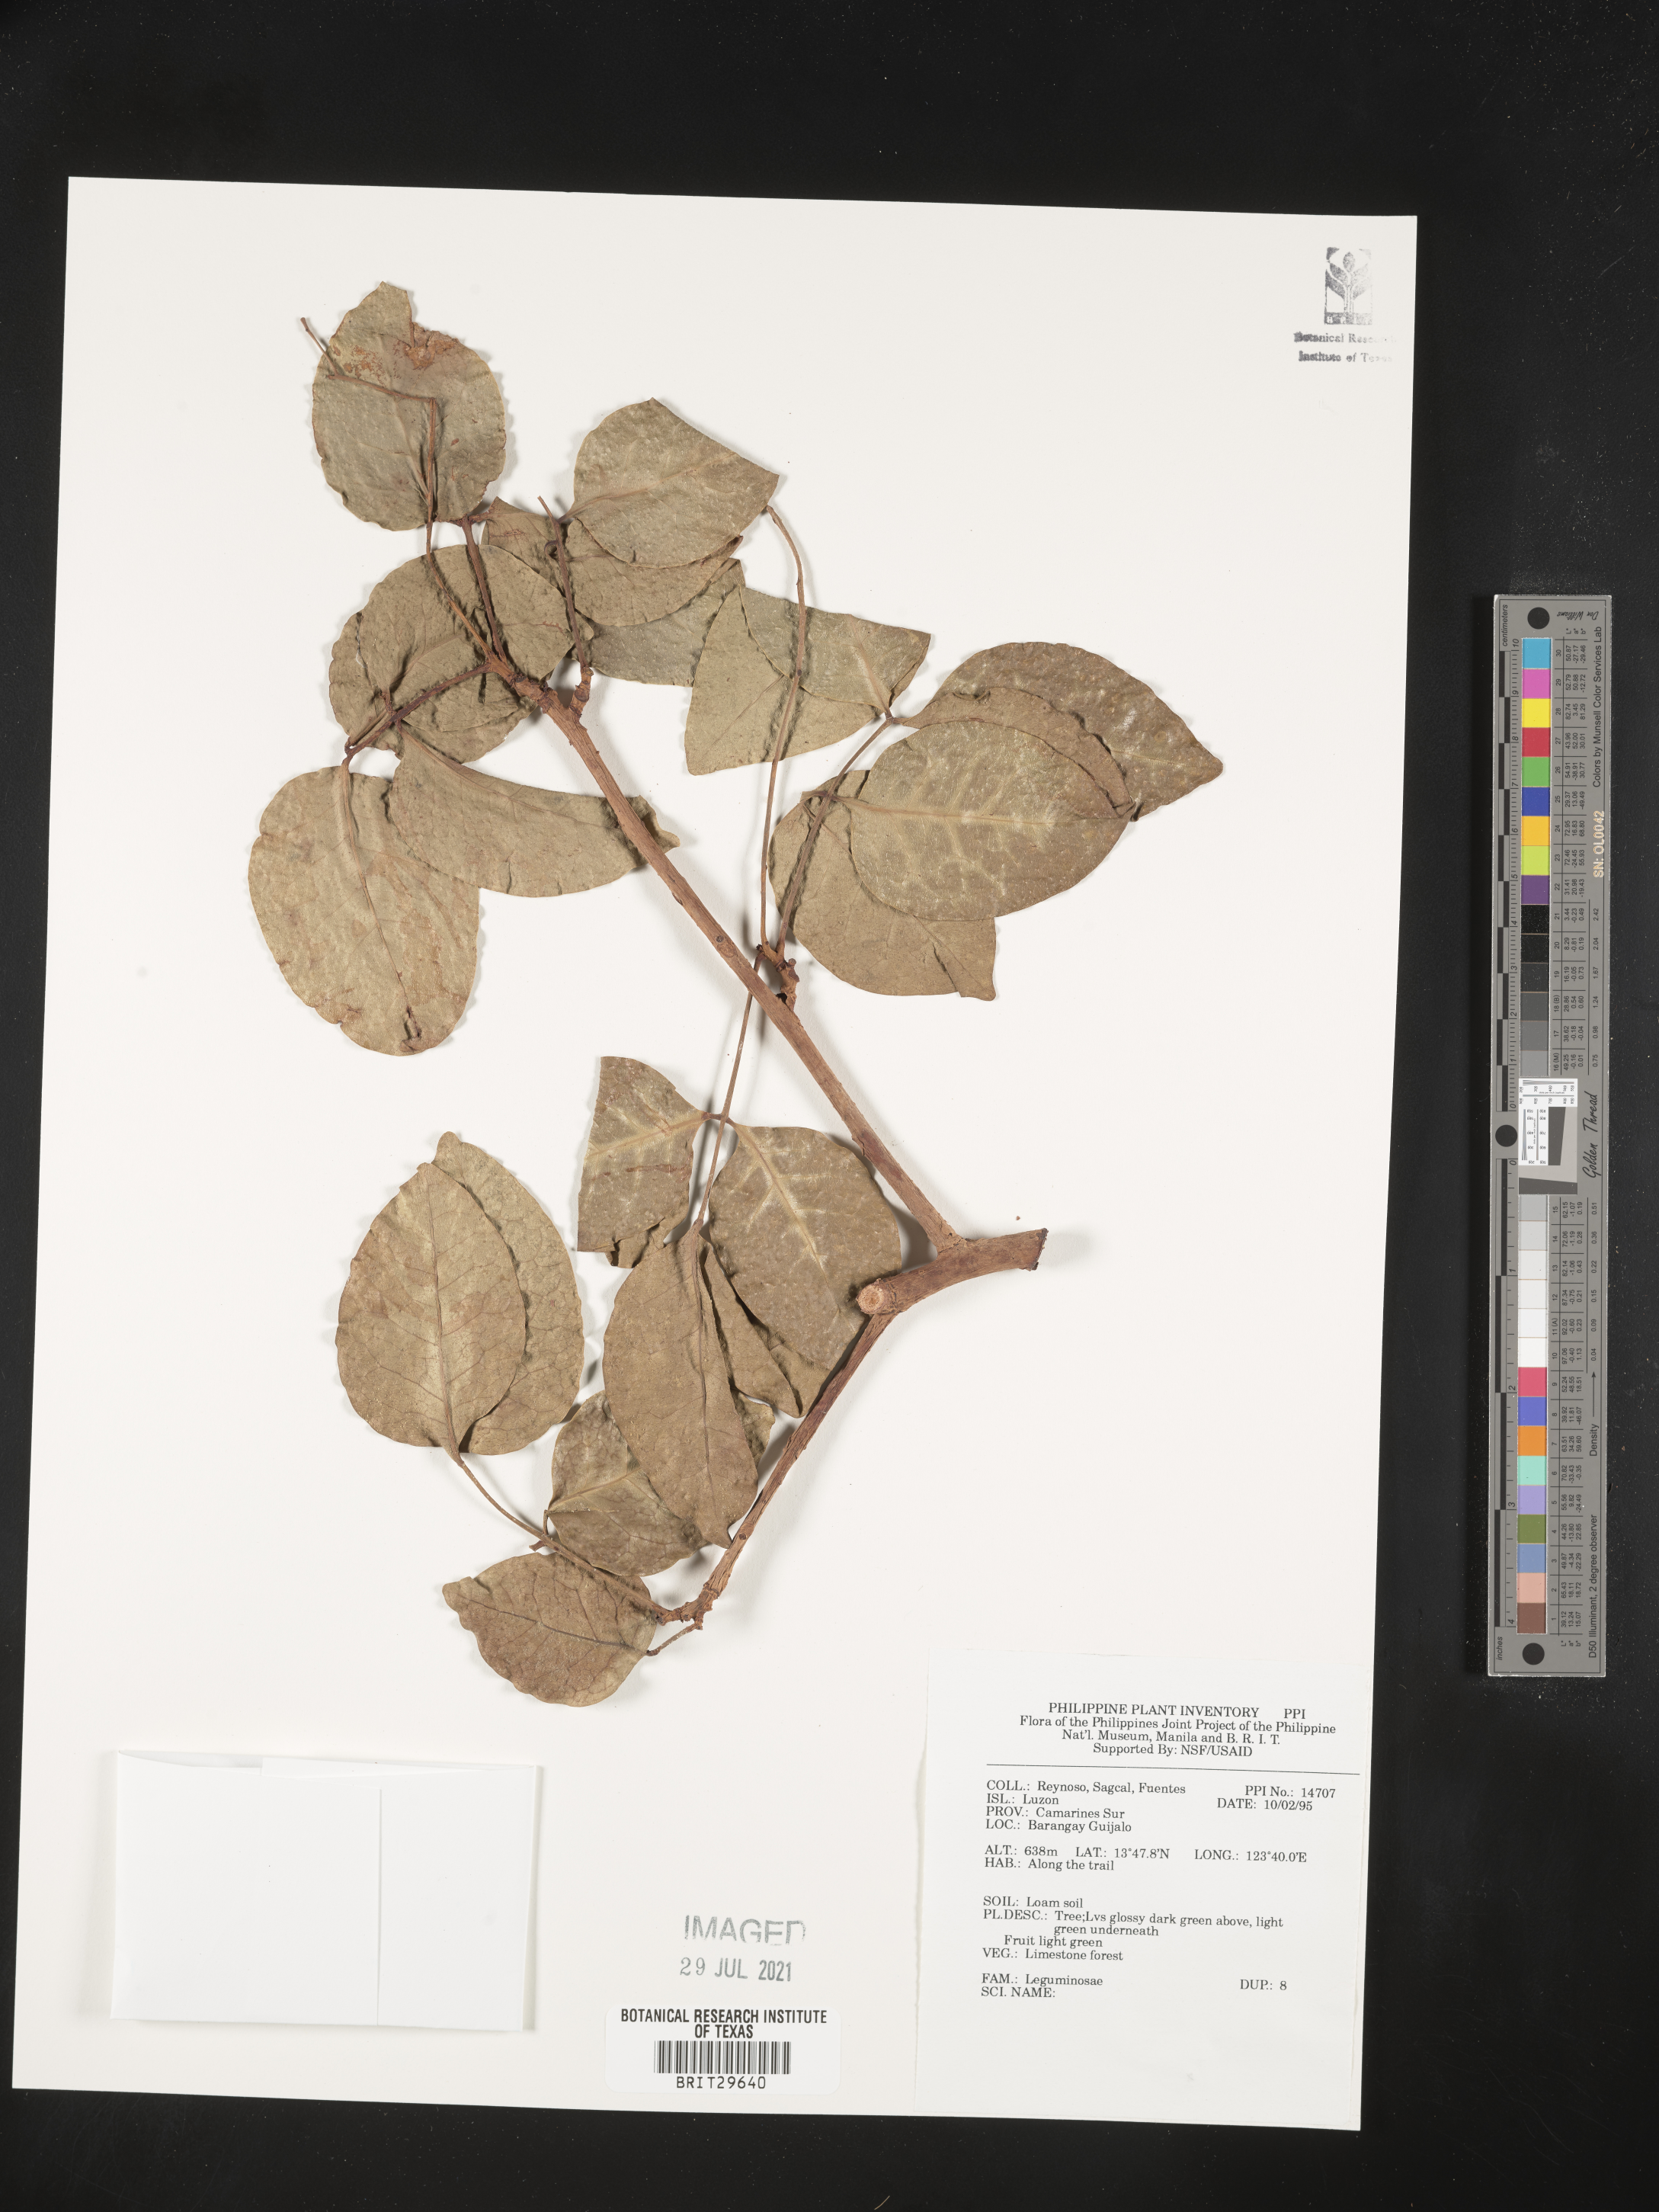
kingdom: Plantae
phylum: Tracheophyta
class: Magnoliopsida
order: Fabales
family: Fabaceae
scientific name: Fabaceae
